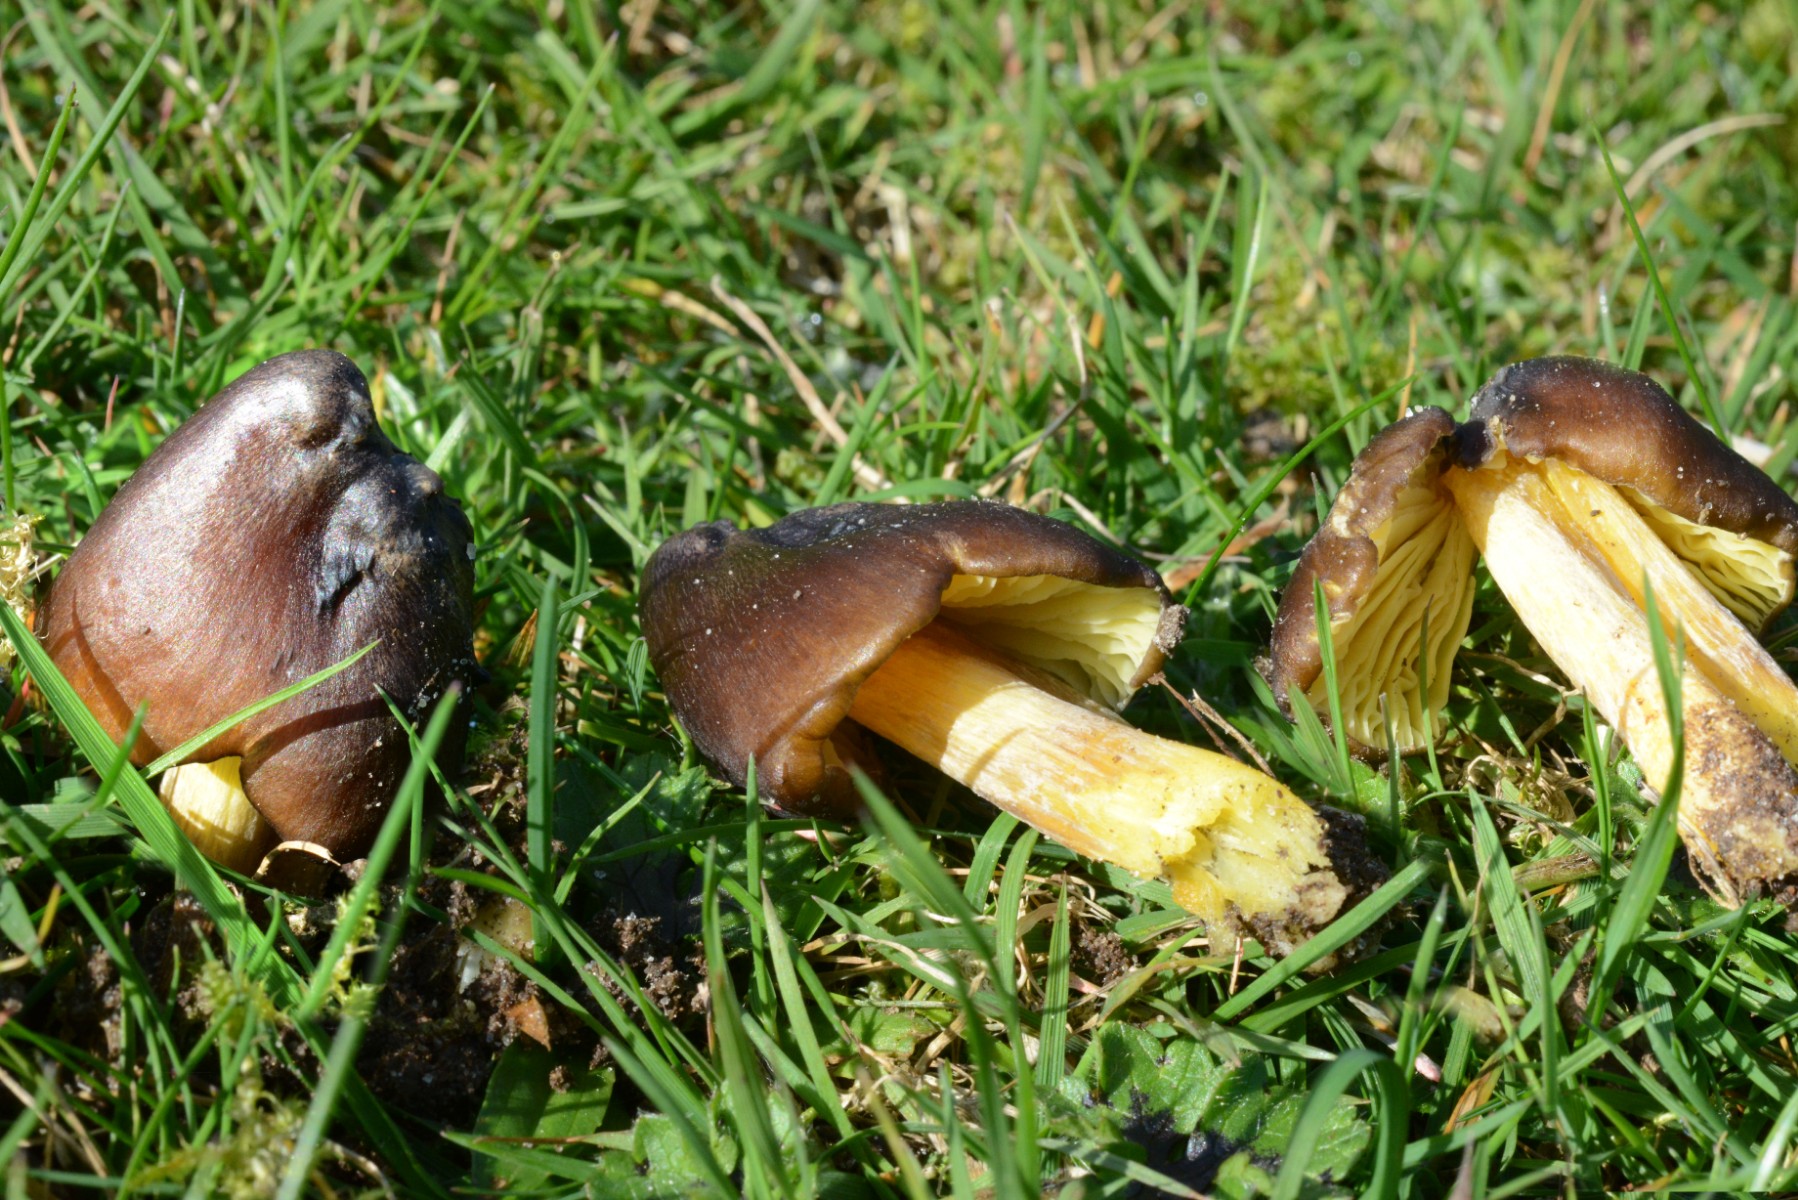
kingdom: Fungi
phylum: Basidiomycota
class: Agaricomycetes
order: Agaricales
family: Hygrophoraceae
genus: Hygrocybe
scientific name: Hygrocybe spadicea
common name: daddelbrun vokshat
